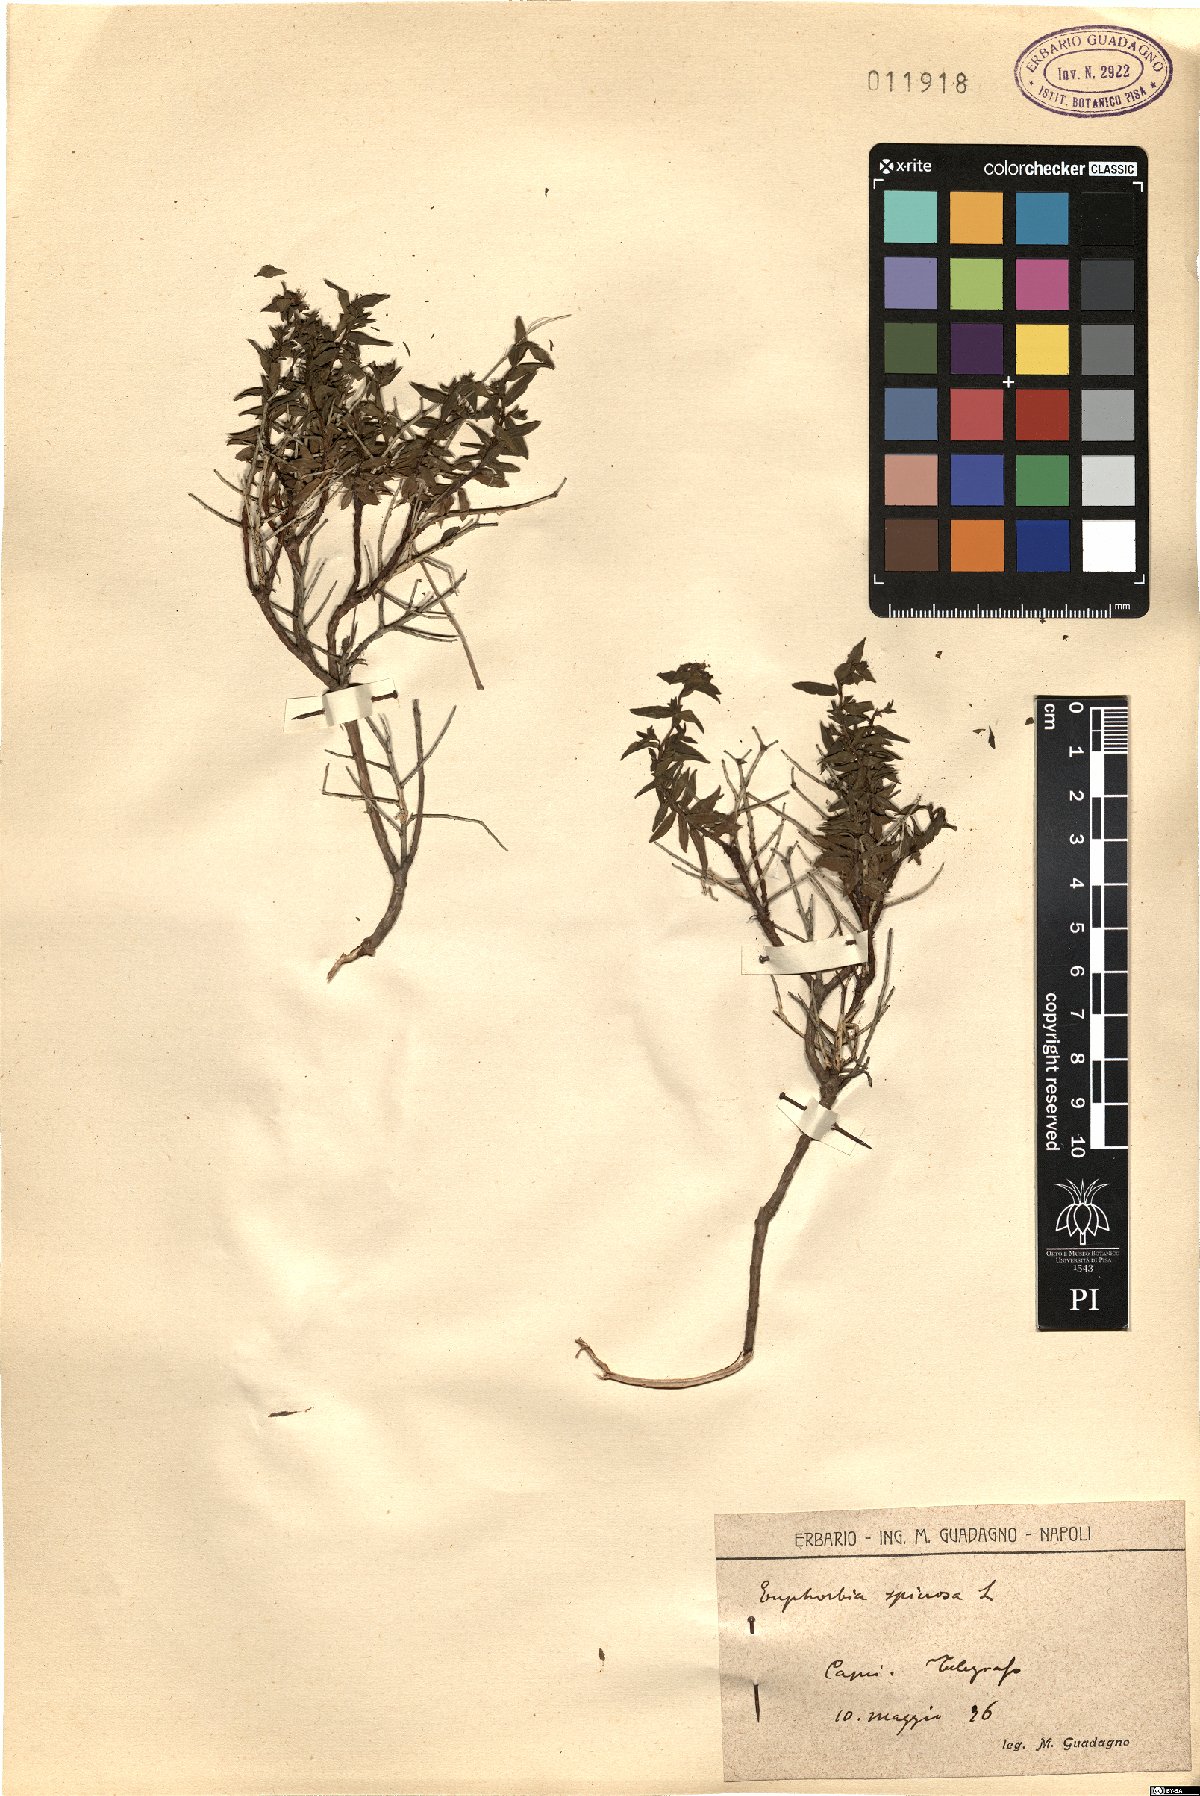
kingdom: Plantae
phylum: Tracheophyta
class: Magnoliopsida
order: Malpighiales
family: Euphorbiaceae
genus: Euphorbia
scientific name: Euphorbia spinosa
